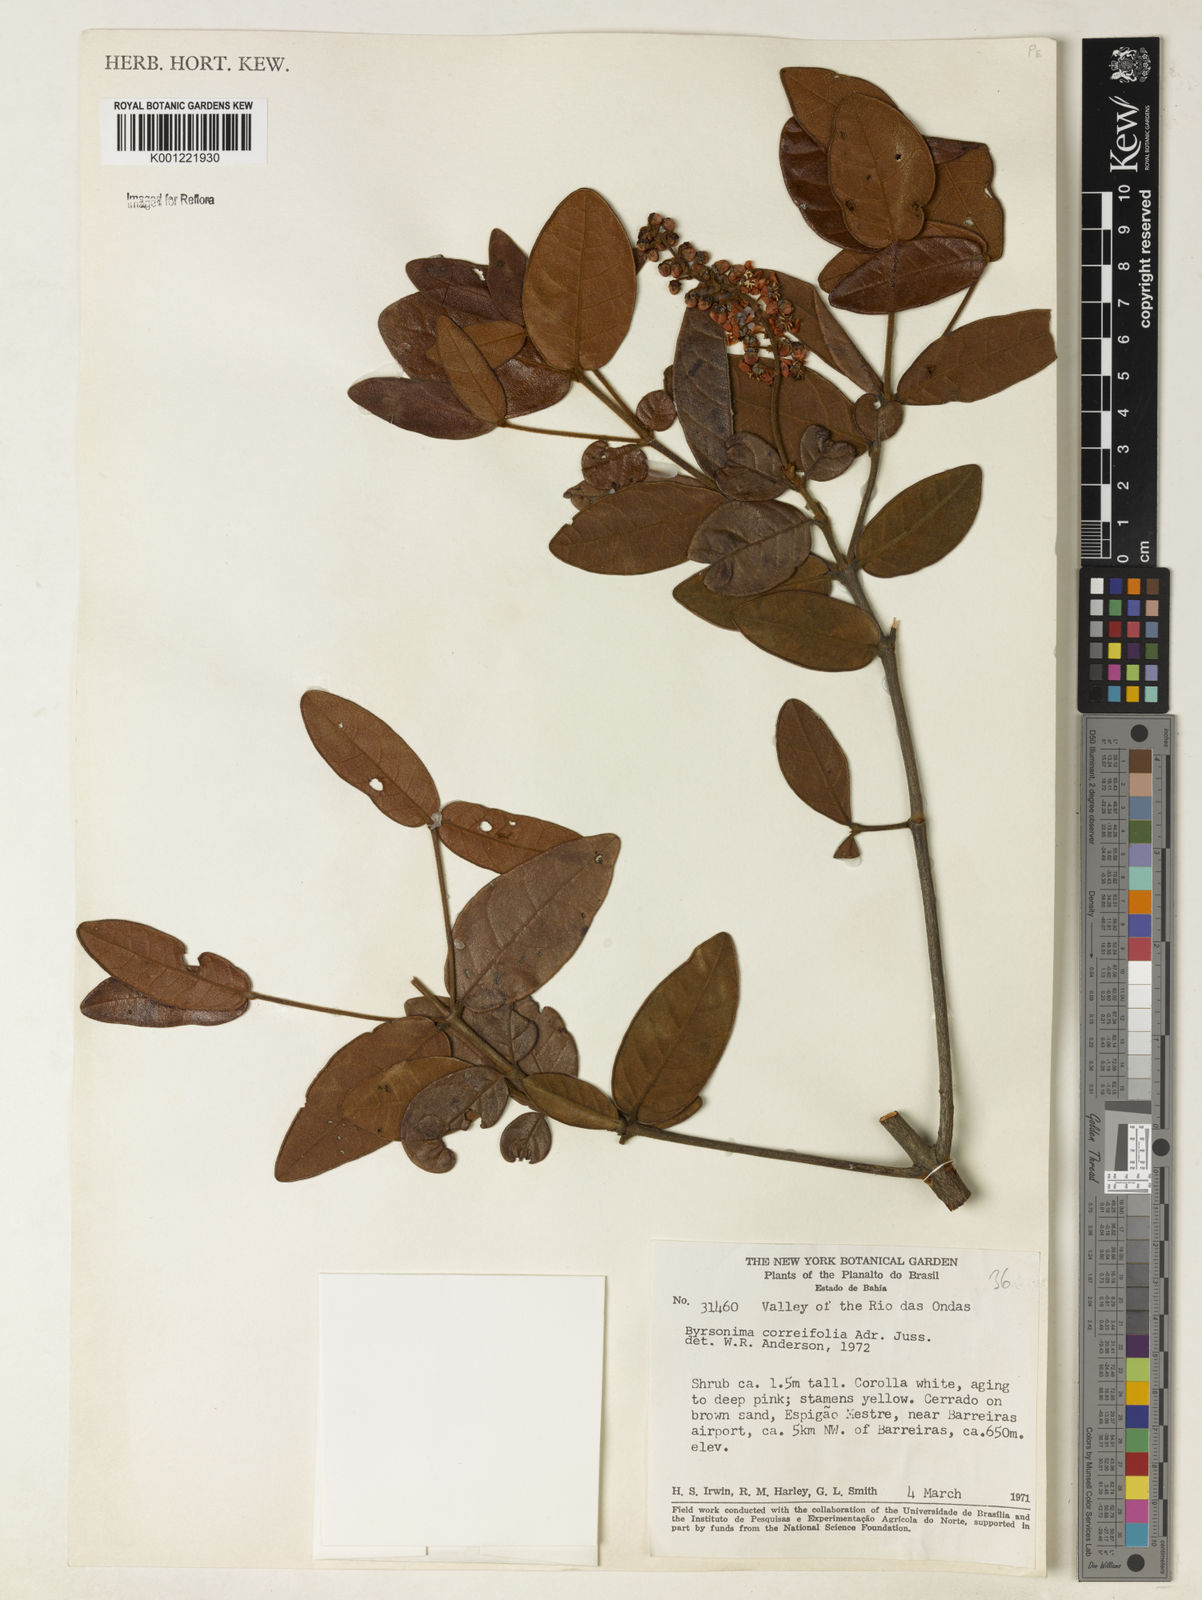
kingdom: Plantae
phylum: Tracheophyta
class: Magnoliopsida
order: Malpighiales
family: Malpighiaceae
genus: Byrsonima
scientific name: Byrsonima correifolia
